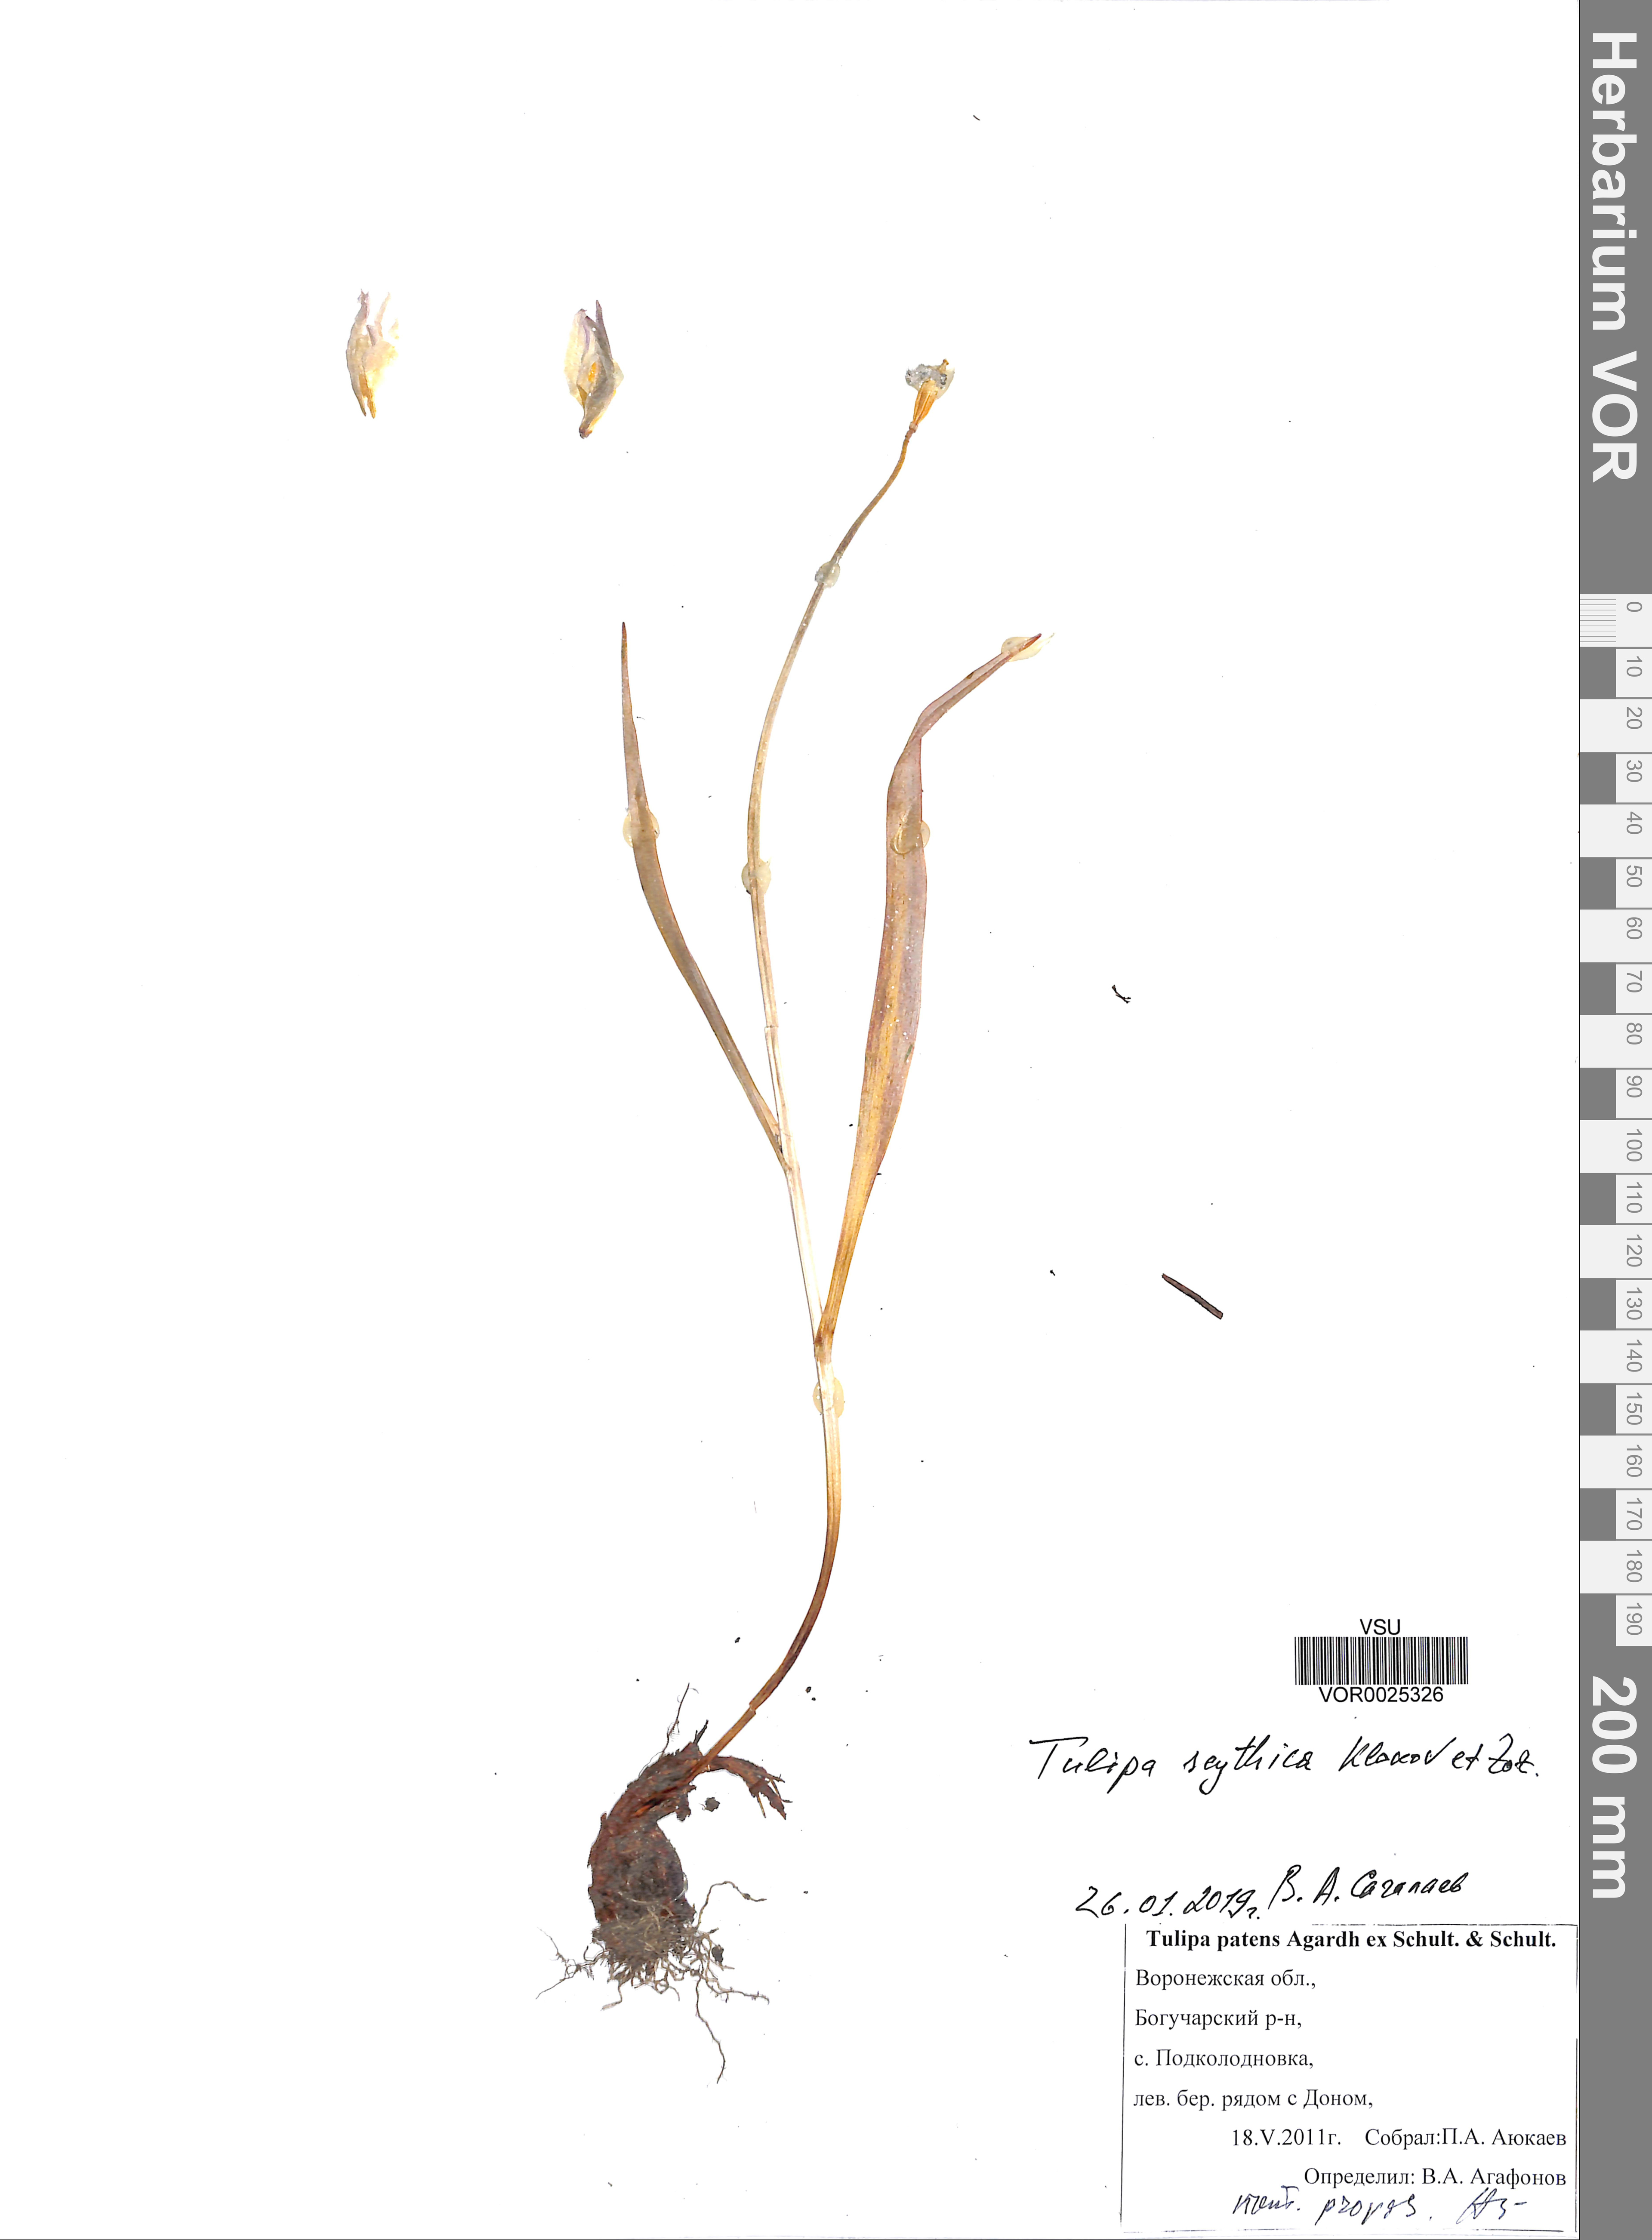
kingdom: Plantae
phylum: Tracheophyta
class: Liliopsida
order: Liliales
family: Liliaceae
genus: Tulipa
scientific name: Tulipa sylvestris
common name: Wild tulip
